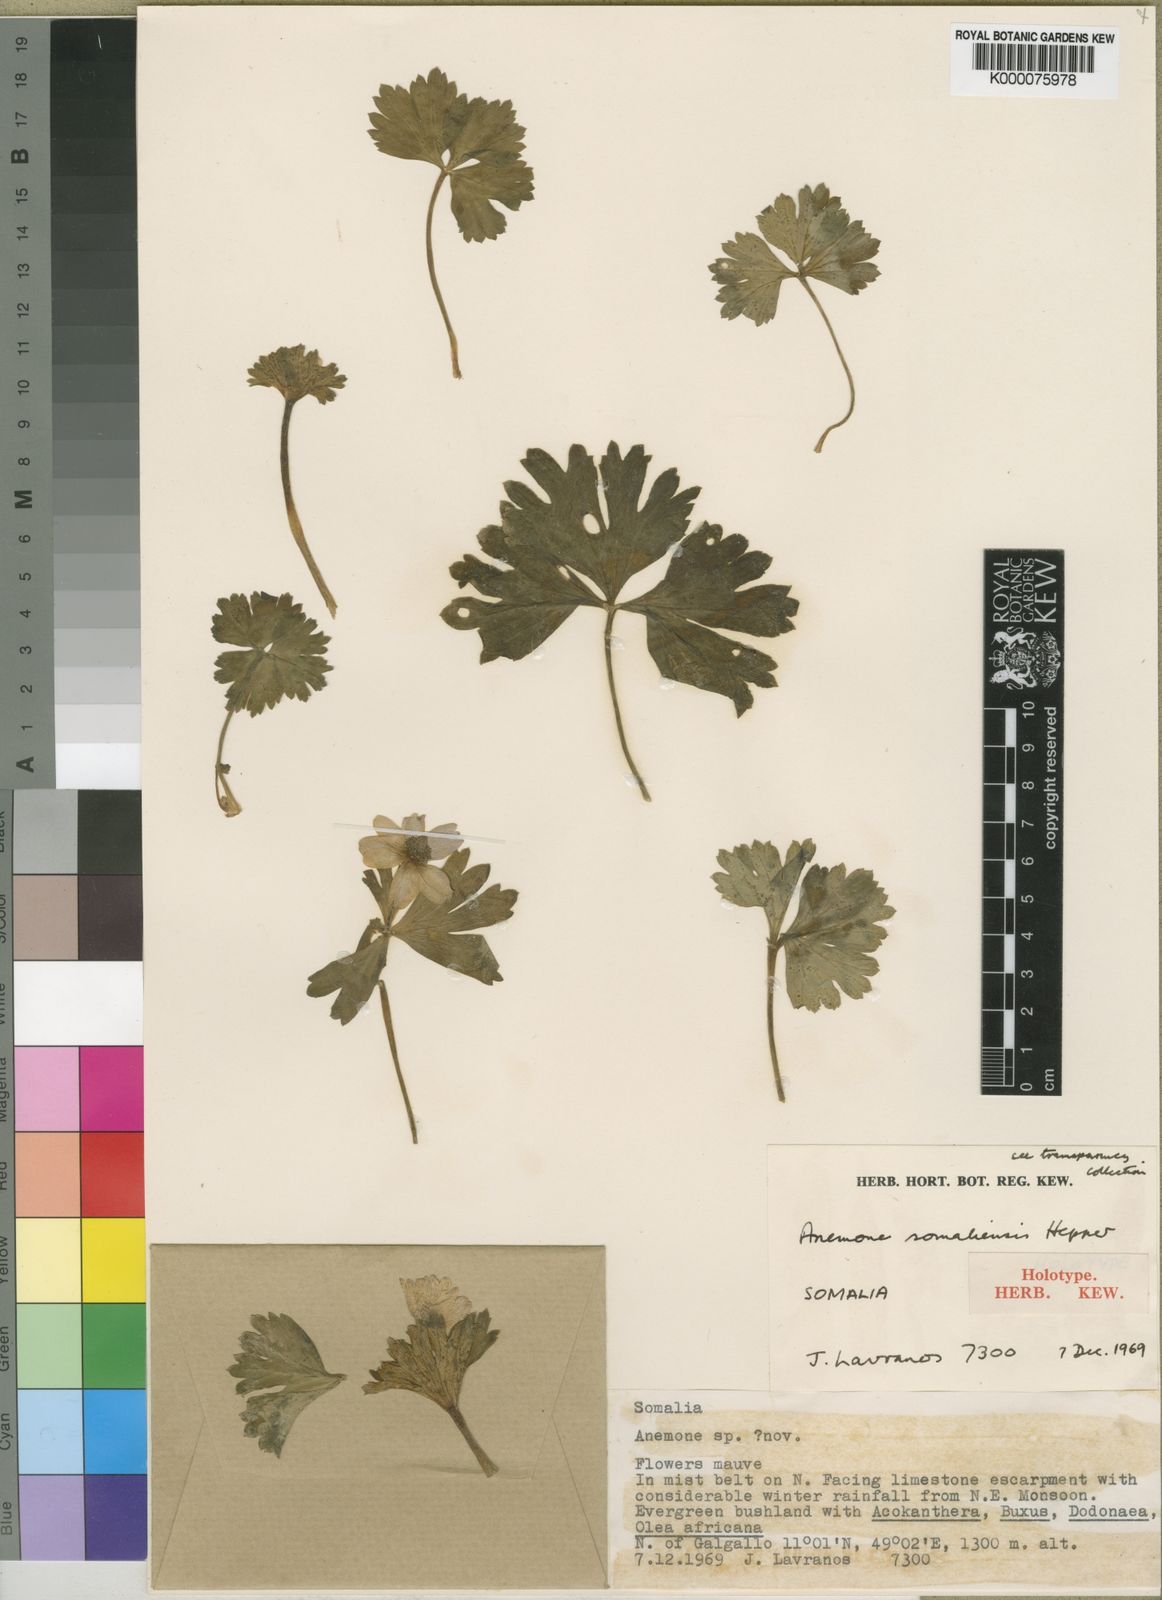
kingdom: Plantae
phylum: Tracheophyta
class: Magnoliopsida
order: Ranunculales
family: Ranunculaceae
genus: Anemone
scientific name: Anemone somaliensis
